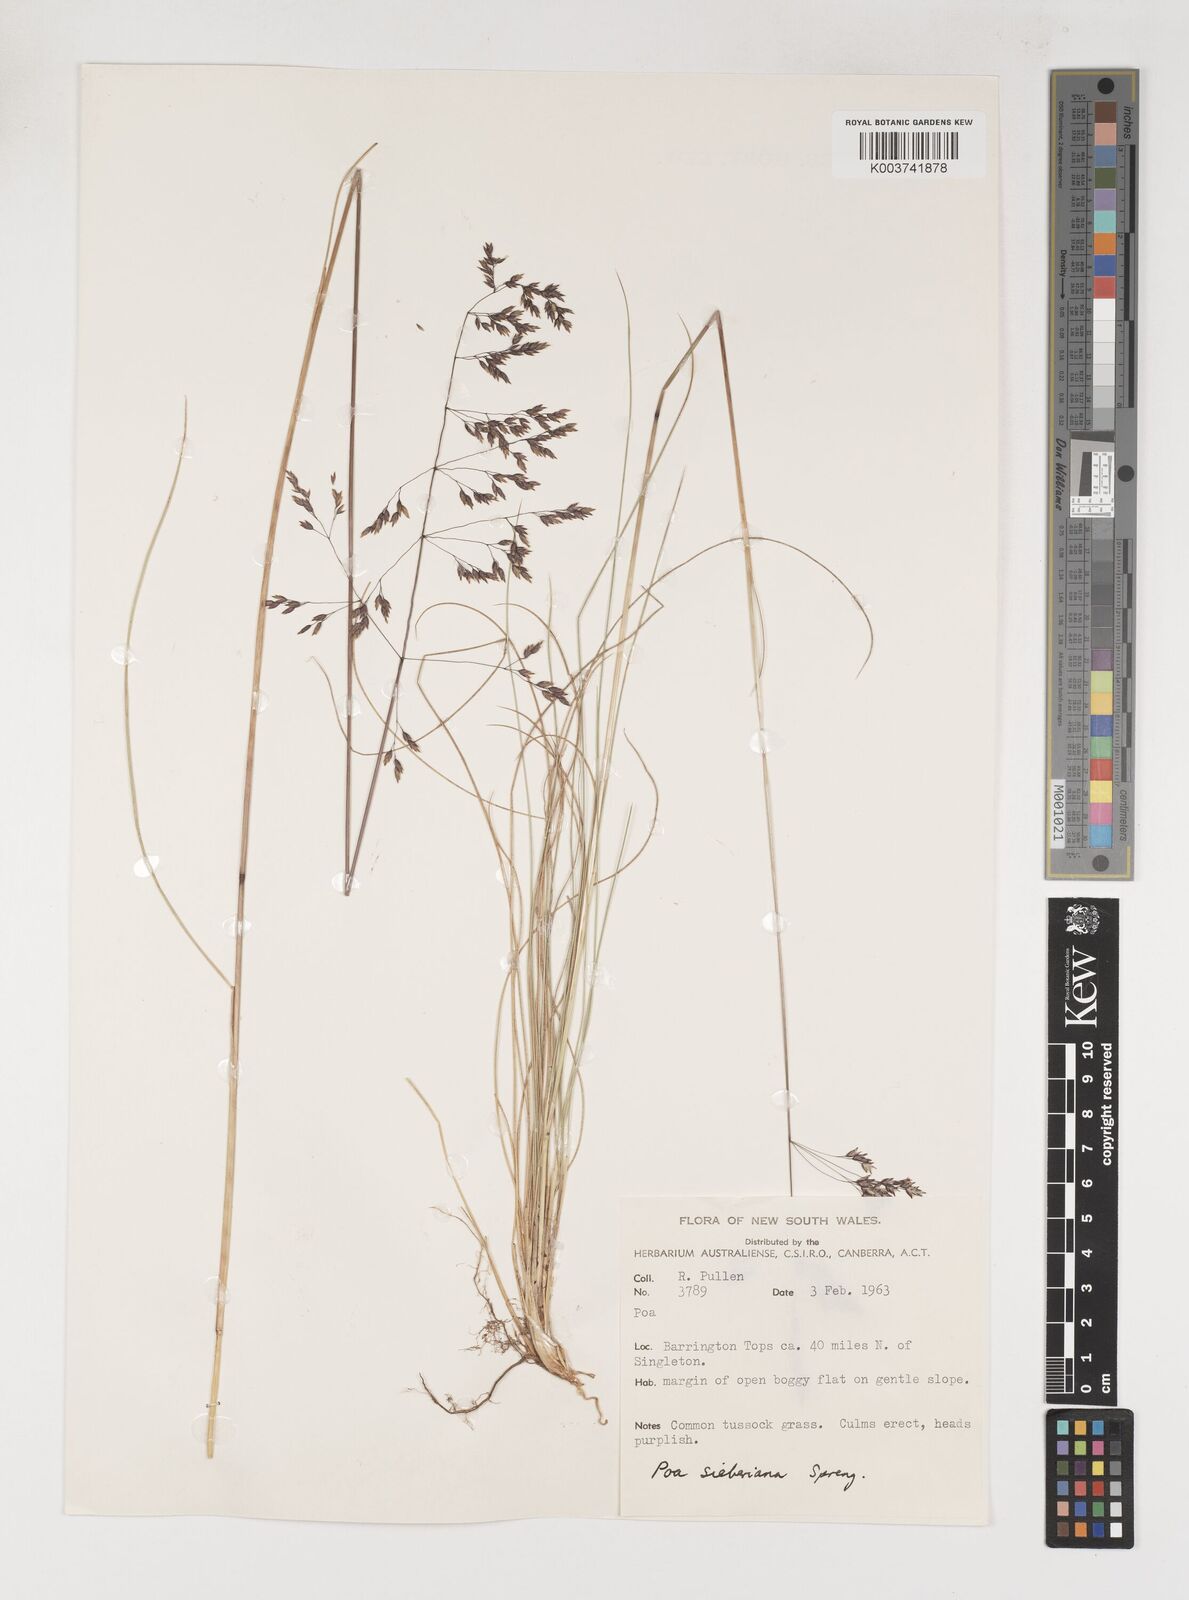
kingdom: Plantae
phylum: Tracheophyta
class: Liliopsida
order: Poales
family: Poaceae
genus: Poa
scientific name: Poa sieberiana
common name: Tussock poa
